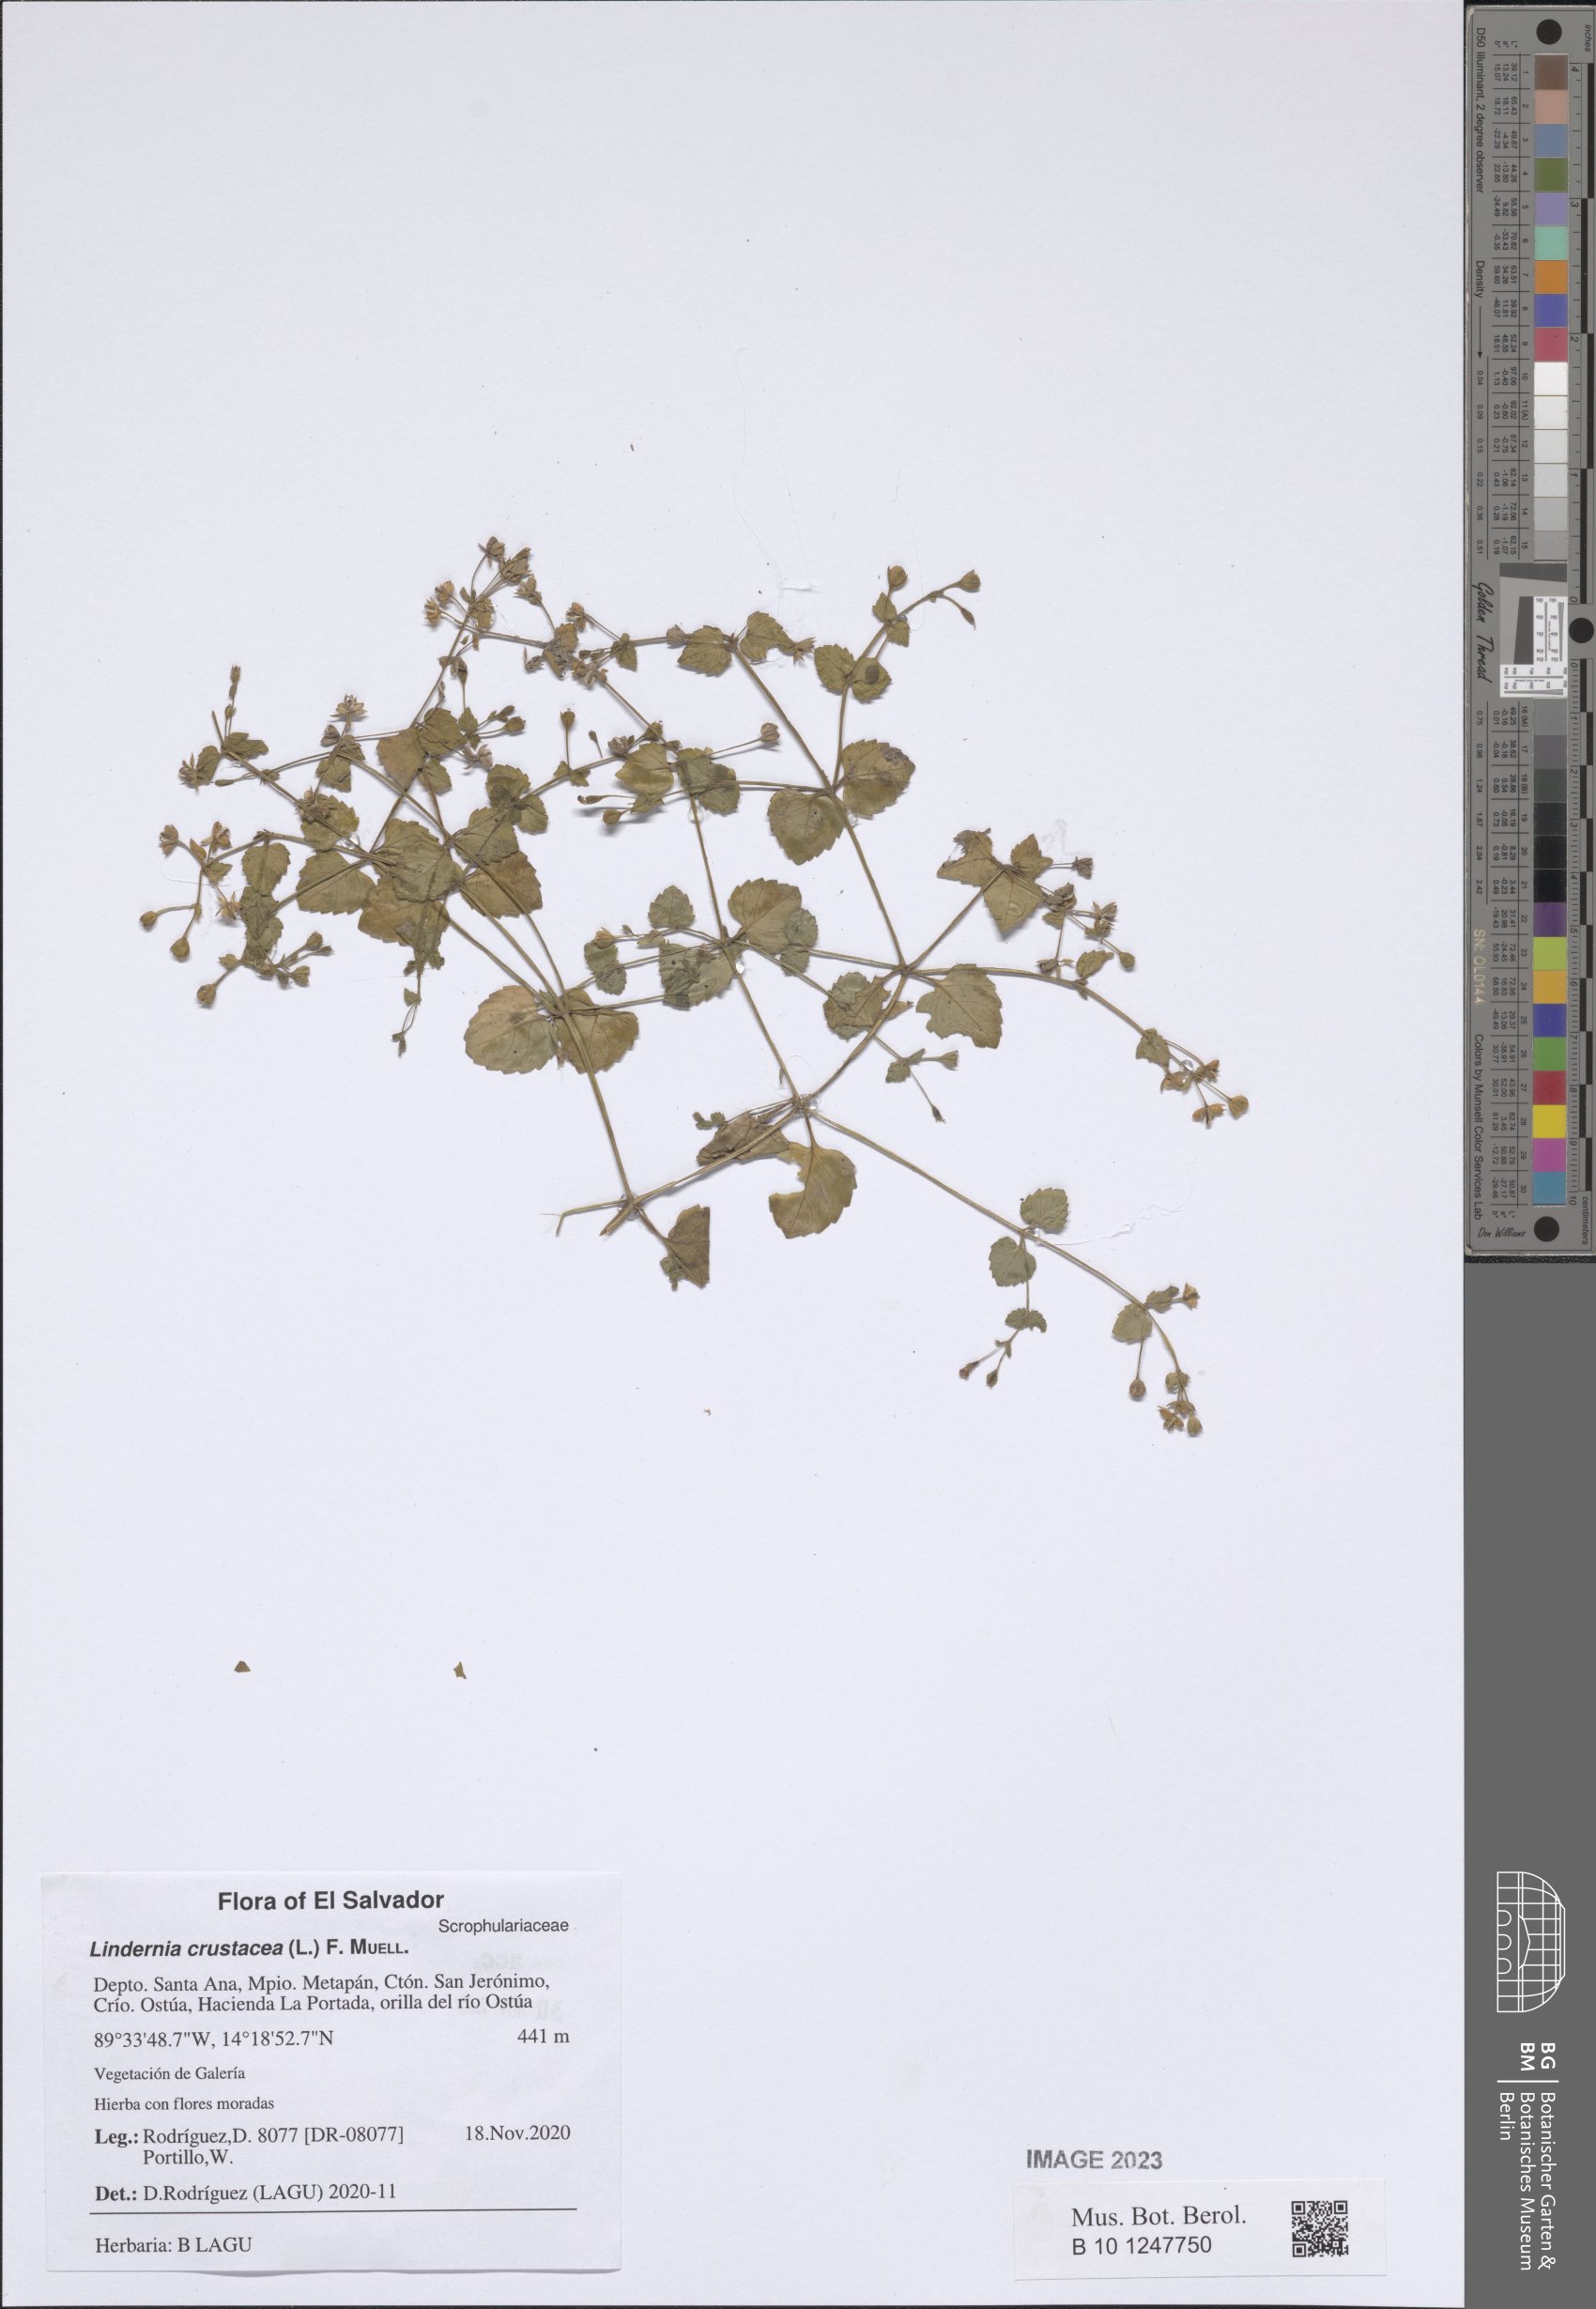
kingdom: Plantae
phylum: Tracheophyta
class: Magnoliopsida
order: Lamiales
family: Linderniaceae
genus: Torenia
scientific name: Torenia crustacea
